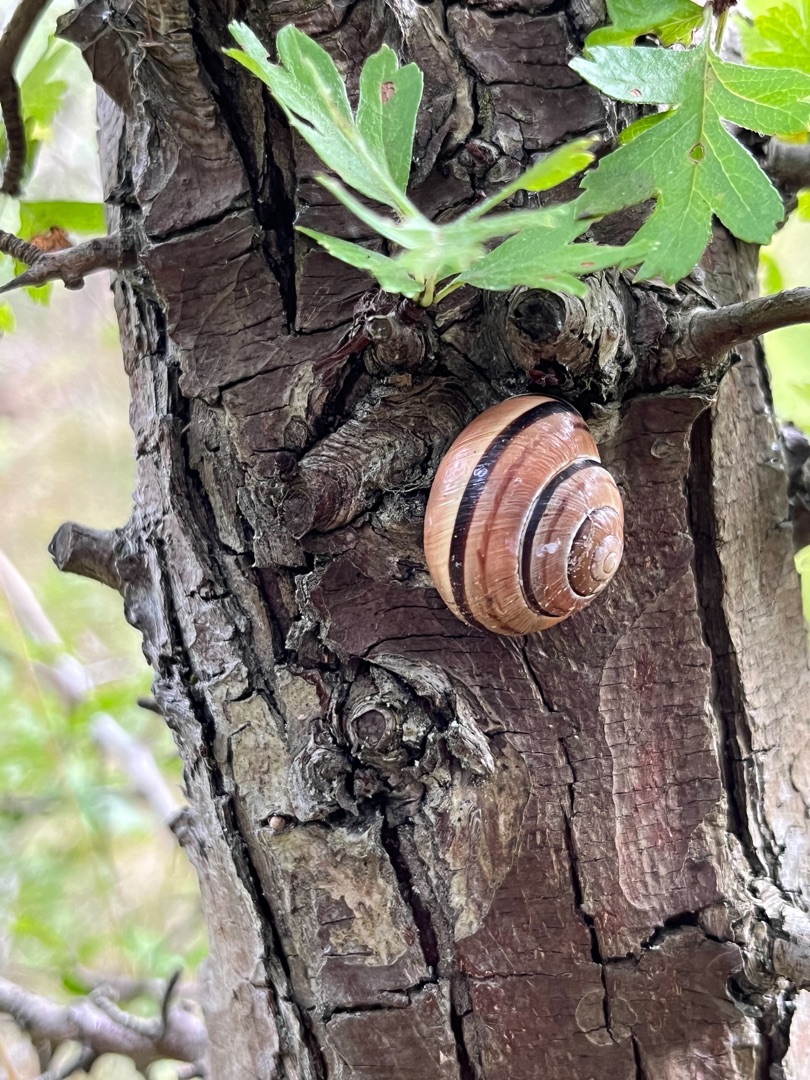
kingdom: Animalia
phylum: Mollusca
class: Gastropoda
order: Stylommatophora
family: Helicidae
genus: Cepaea
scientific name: Cepaea nemoralis
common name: Lundsnegl
